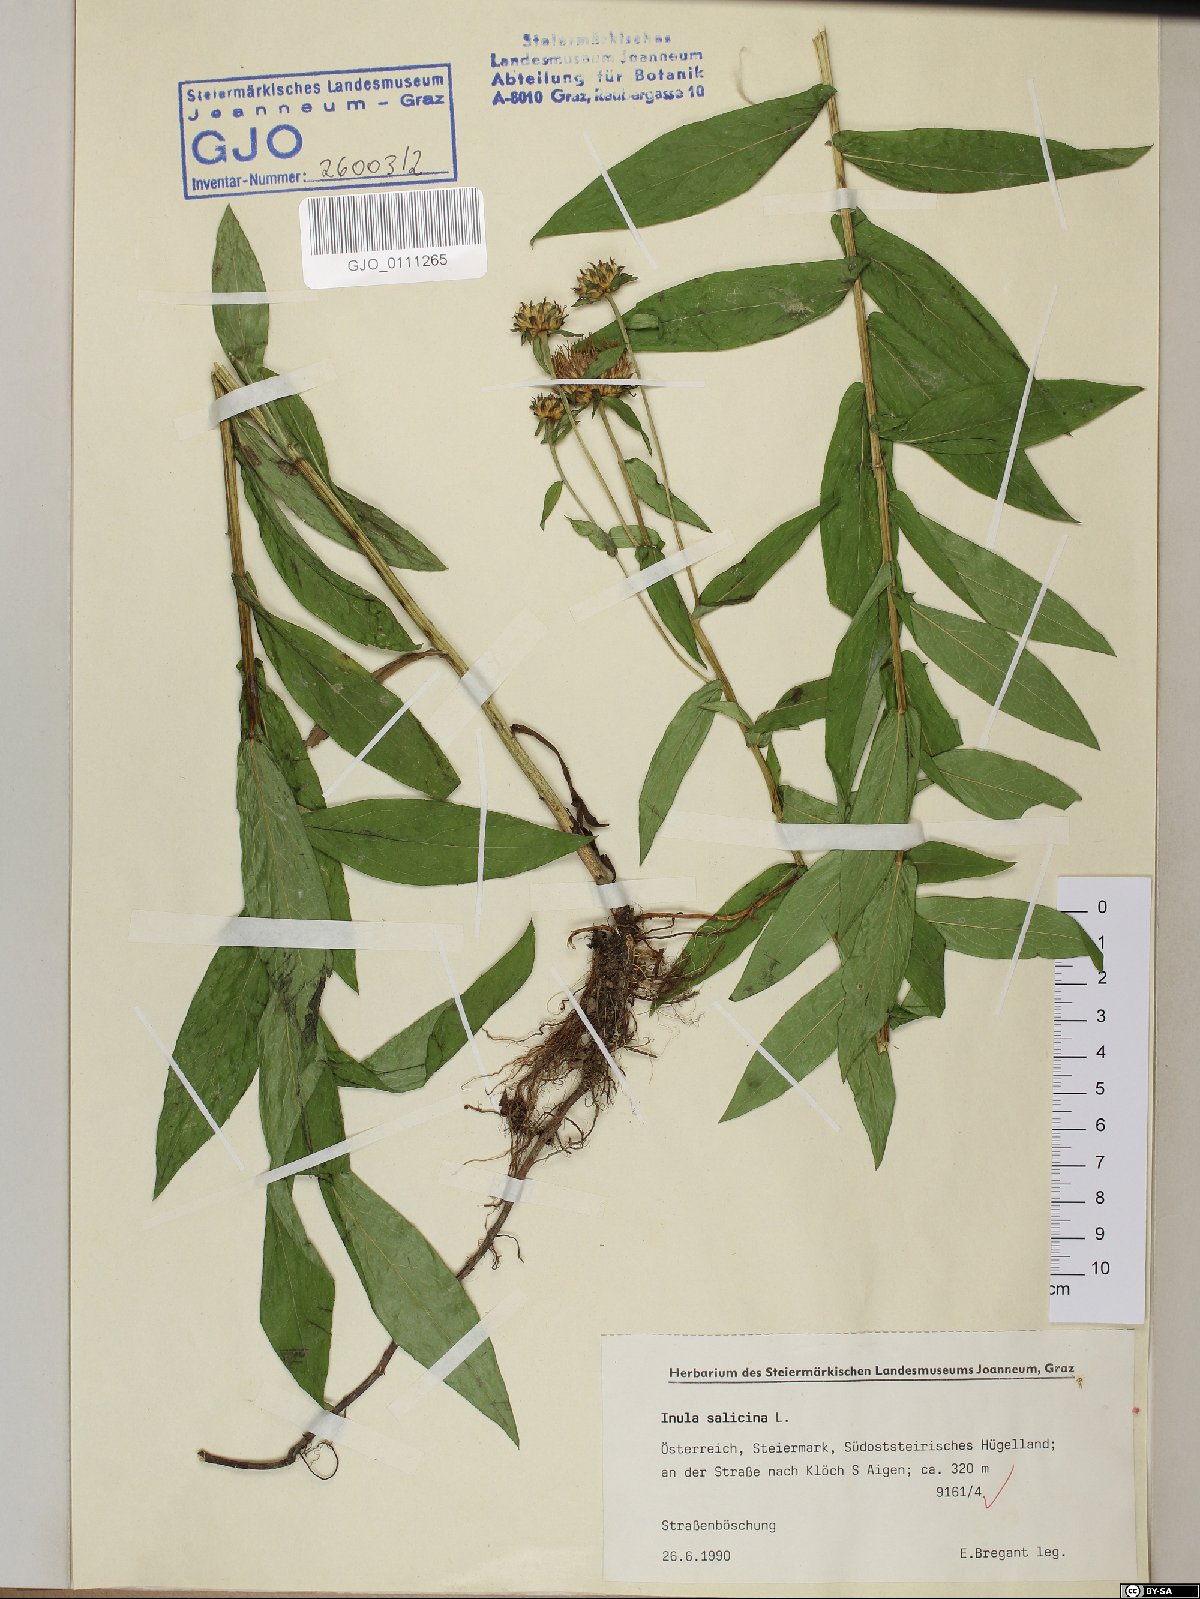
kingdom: Plantae
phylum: Tracheophyta
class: Magnoliopsida
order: Asterales
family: Asteraceae
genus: Pentanema
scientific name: Pentanema salicinum
